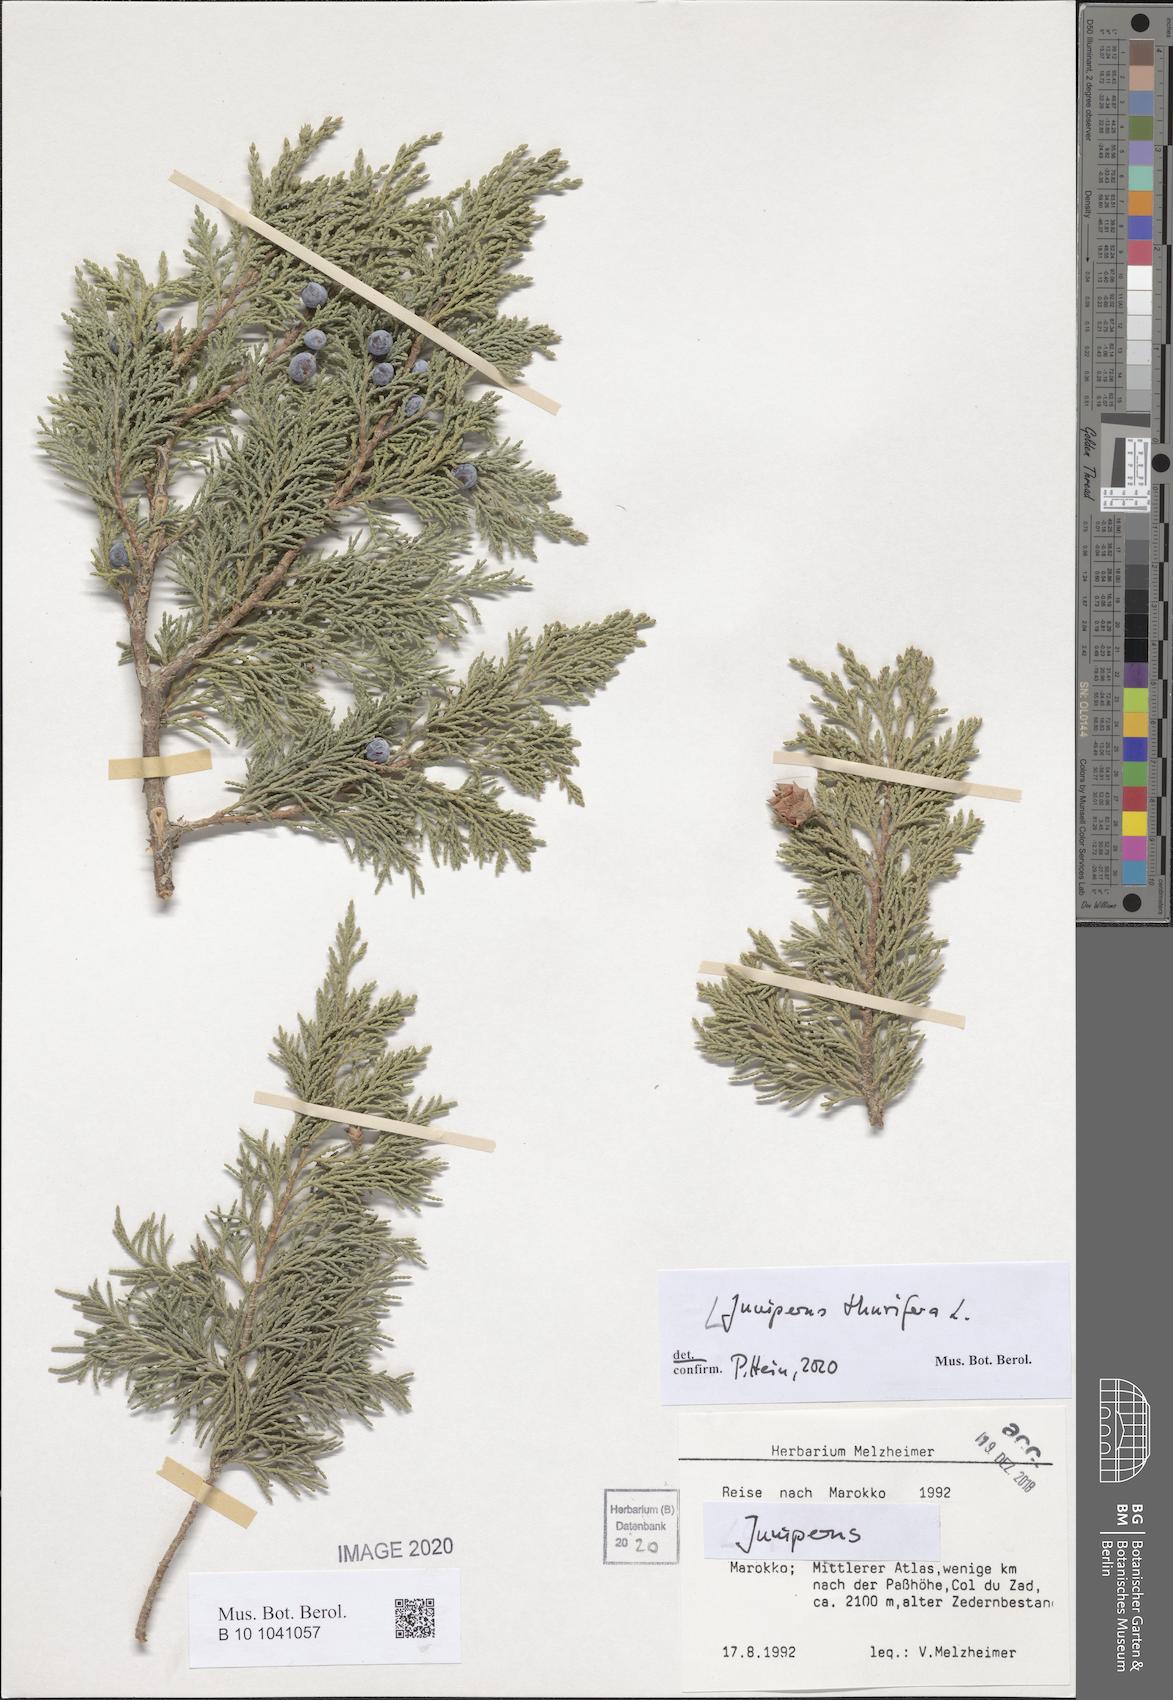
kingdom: Plantae
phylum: Tracheophyta
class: Pinopsida
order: Pinales
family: Cupressaceae
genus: Juniperus
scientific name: Juniperus thurifera
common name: Incense juniper
